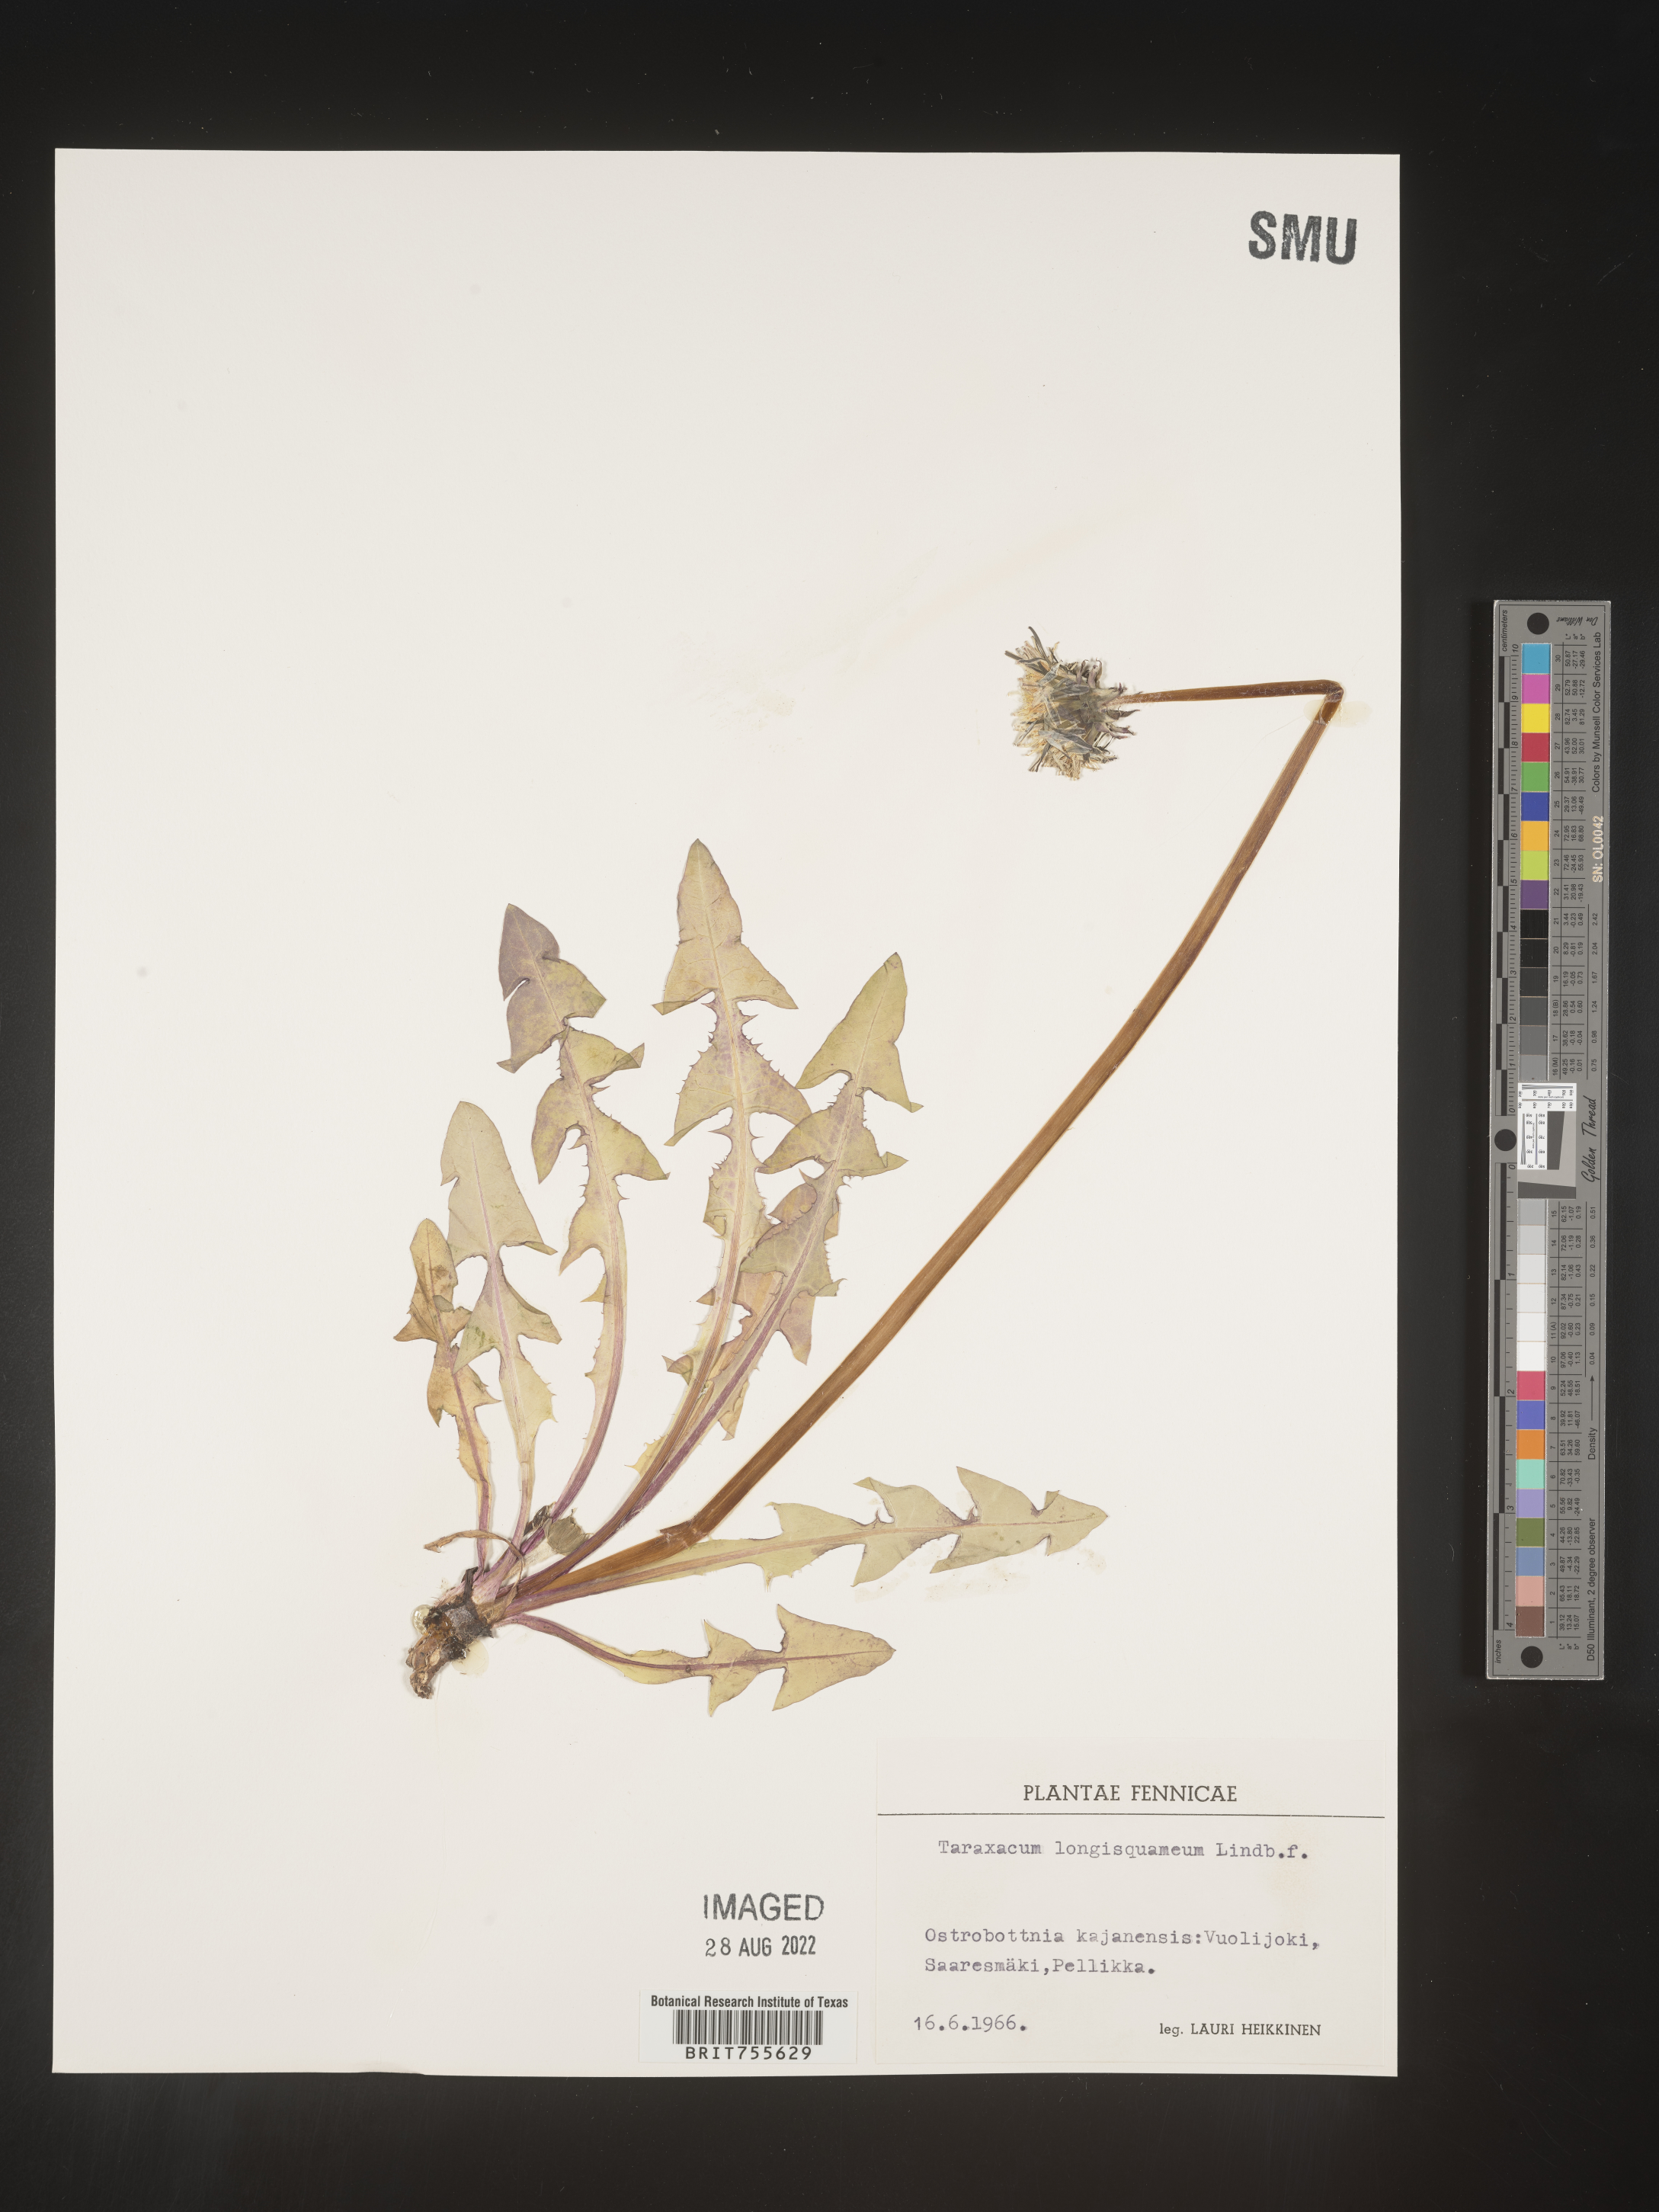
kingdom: Plantae
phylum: Tracheophyta
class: Magnoliopsida
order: Asterales
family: Asteraceae
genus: Taraxacum
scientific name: Taraxacum
